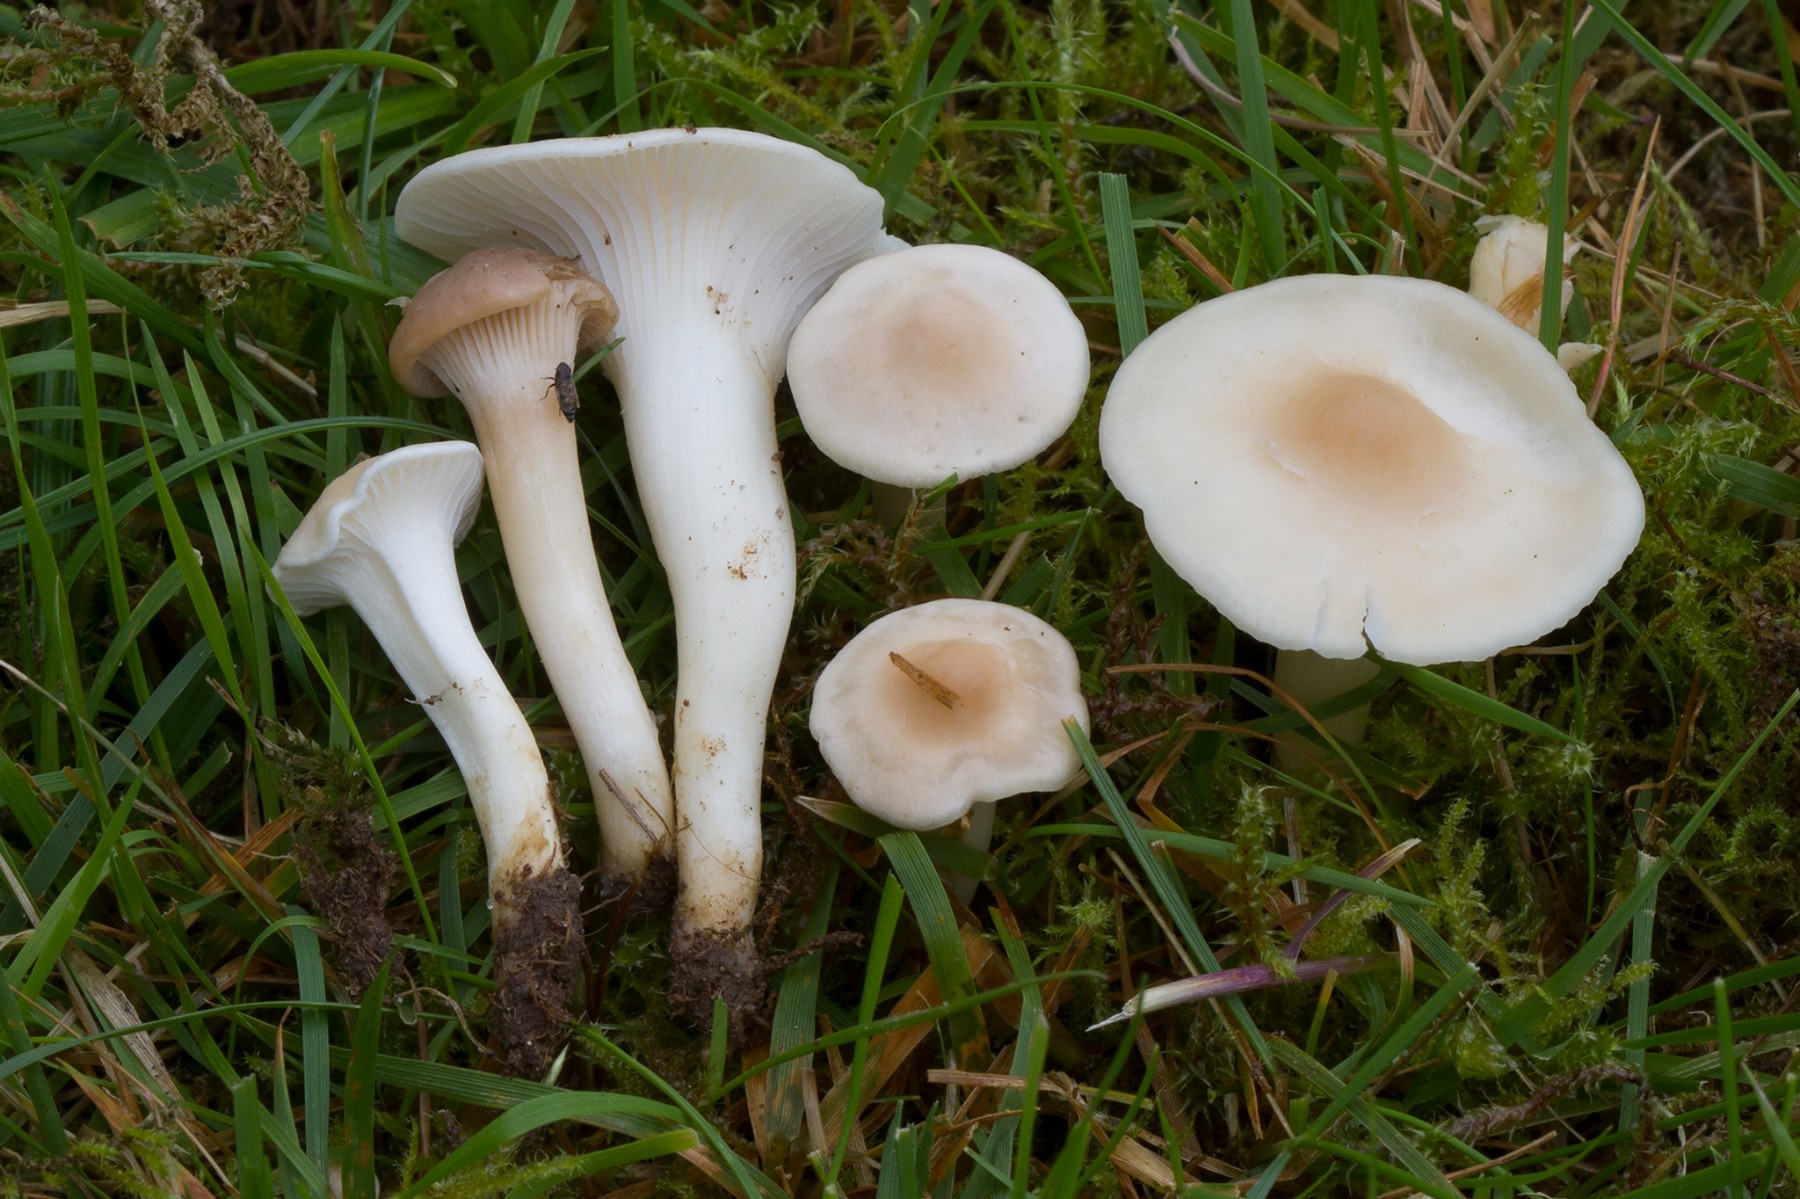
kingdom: Fungi
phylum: Basidiomycota
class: Agaricomycetes
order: Agaricales
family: Hygrophoraceae
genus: Cuphophyllus
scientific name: Cuphophyllus
